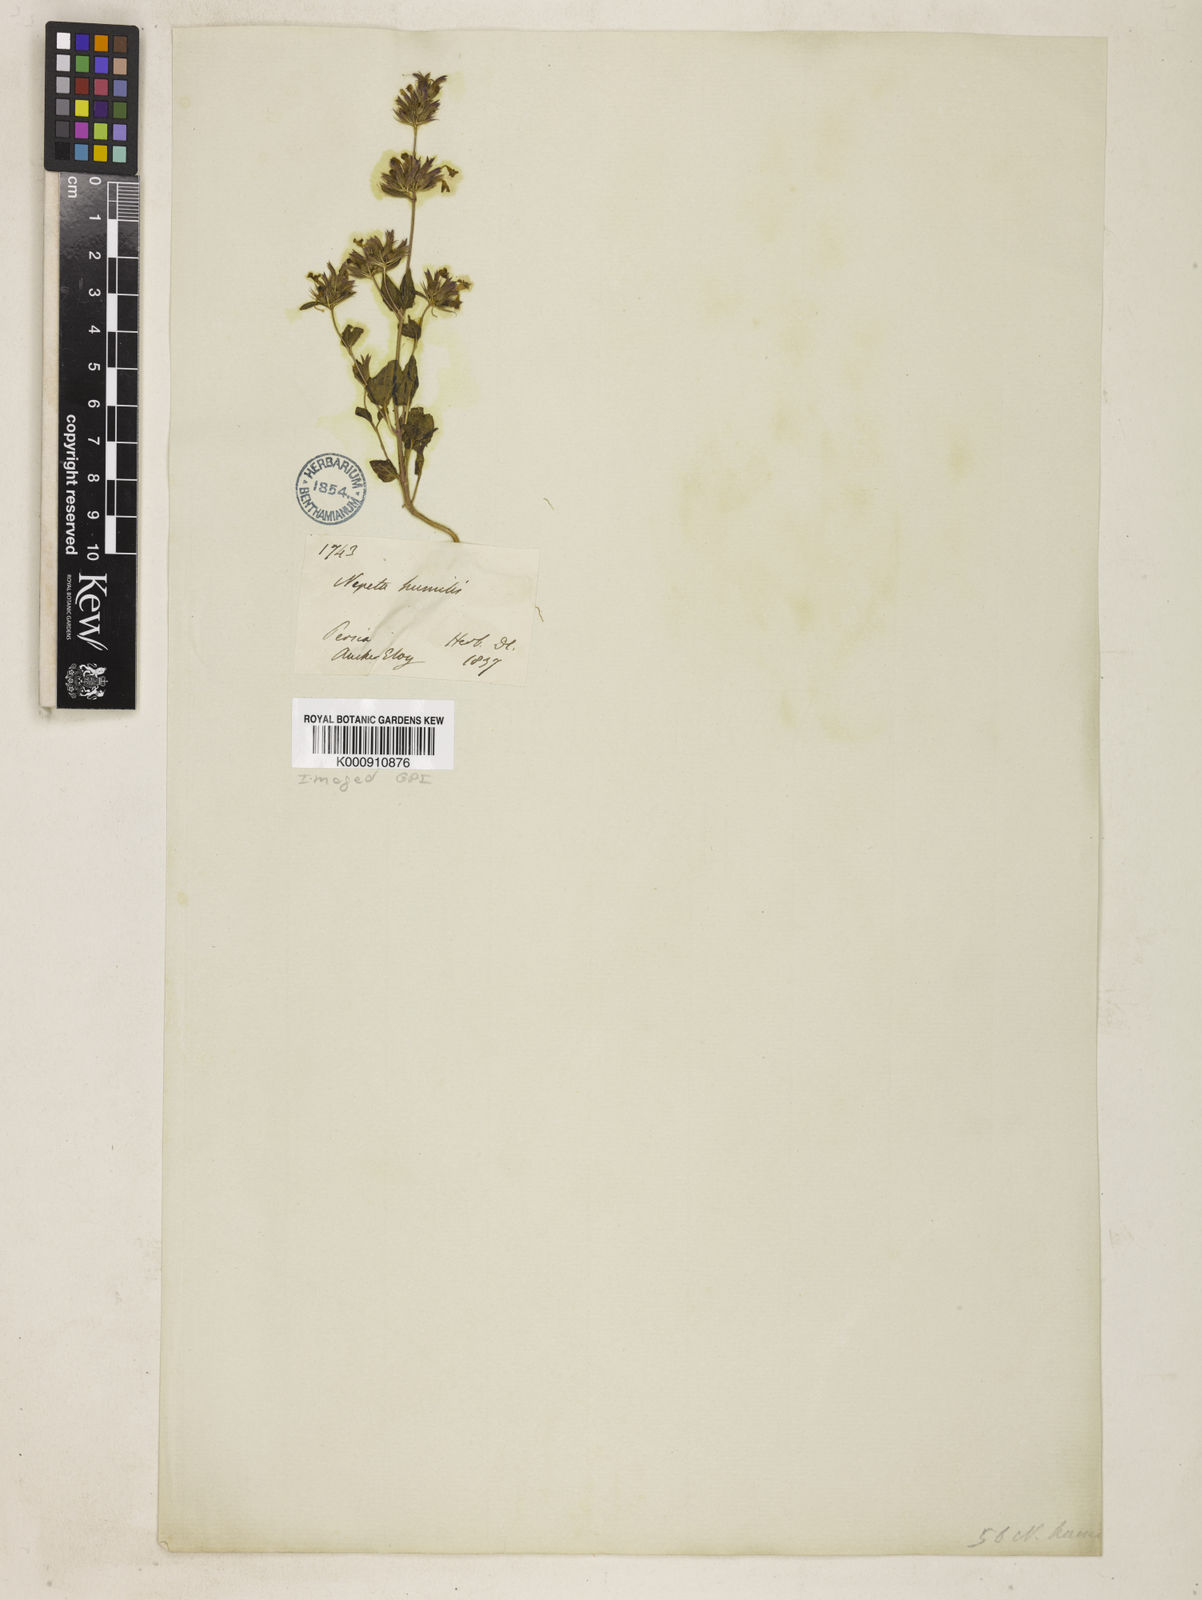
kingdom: Plantae
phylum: Tracheophyta
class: Magnoliopsida
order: Lamiales
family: Lamiaceae
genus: Nepeta
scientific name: Nepeta humilis
